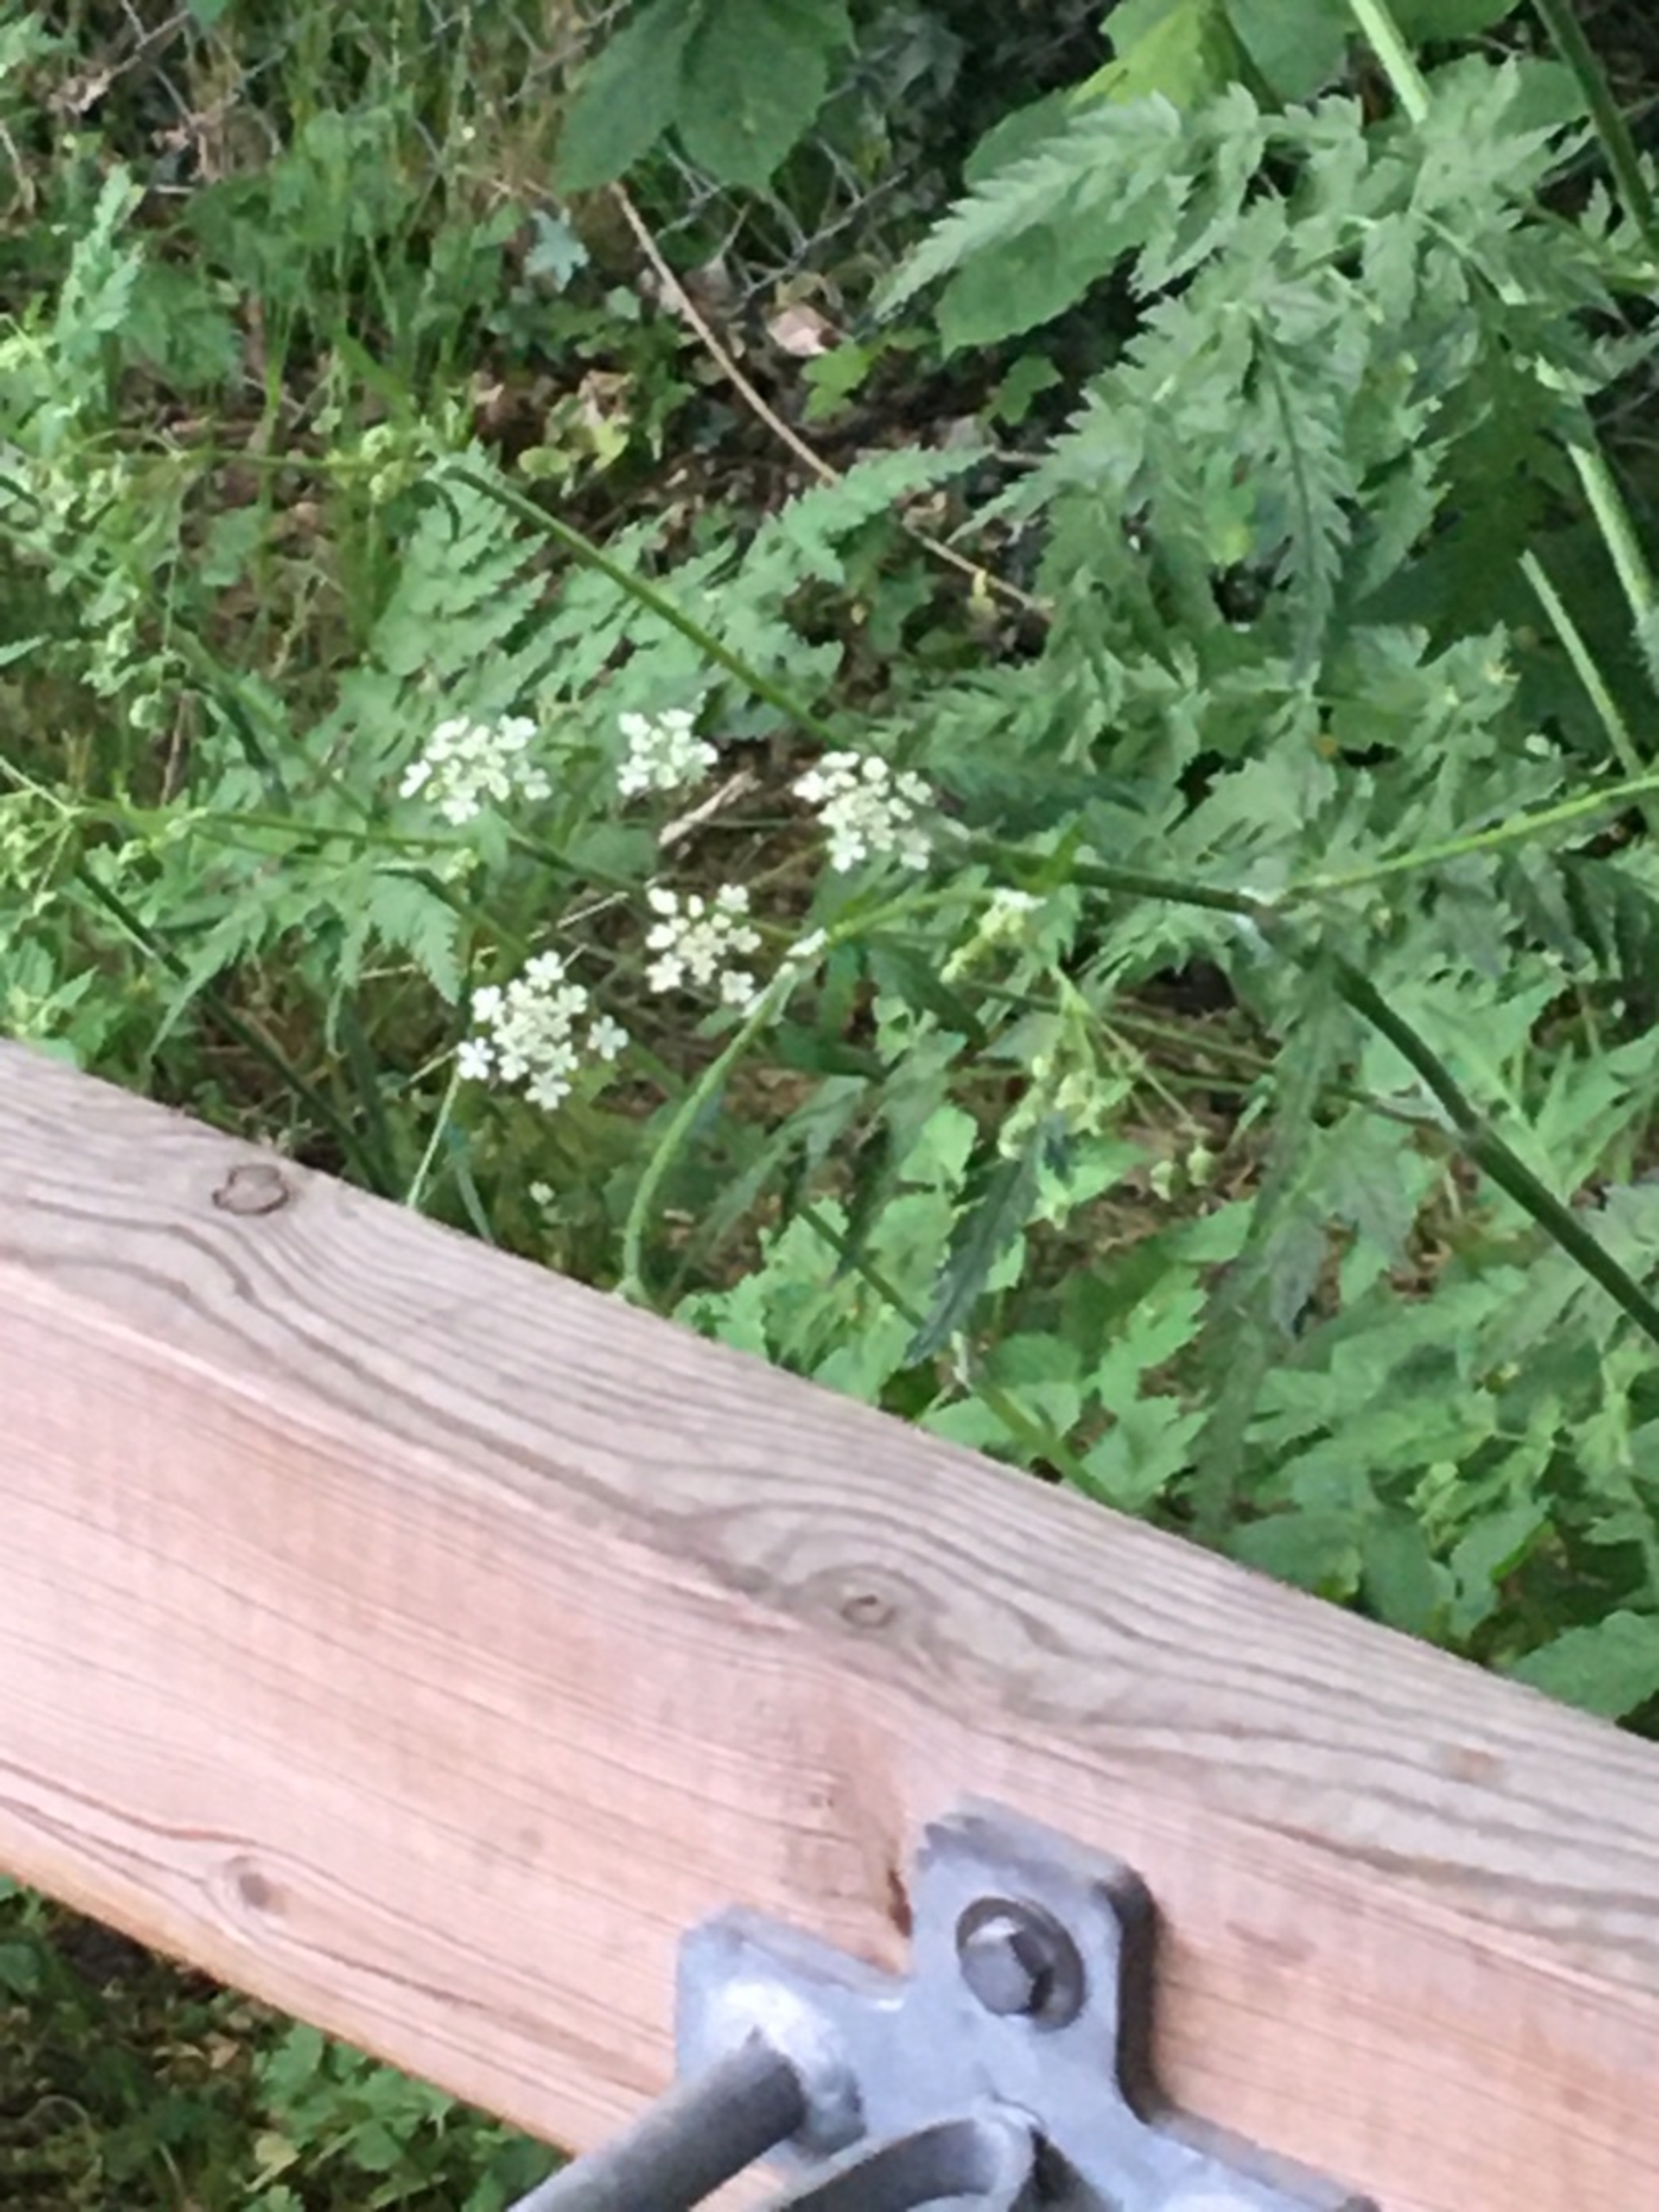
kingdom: Plantae
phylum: Tracheophyta
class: Magnoliopsida
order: Apiales
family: Apiaceae
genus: Anthriscus
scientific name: Anthriscus sylvestris
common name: Vild kørvel
